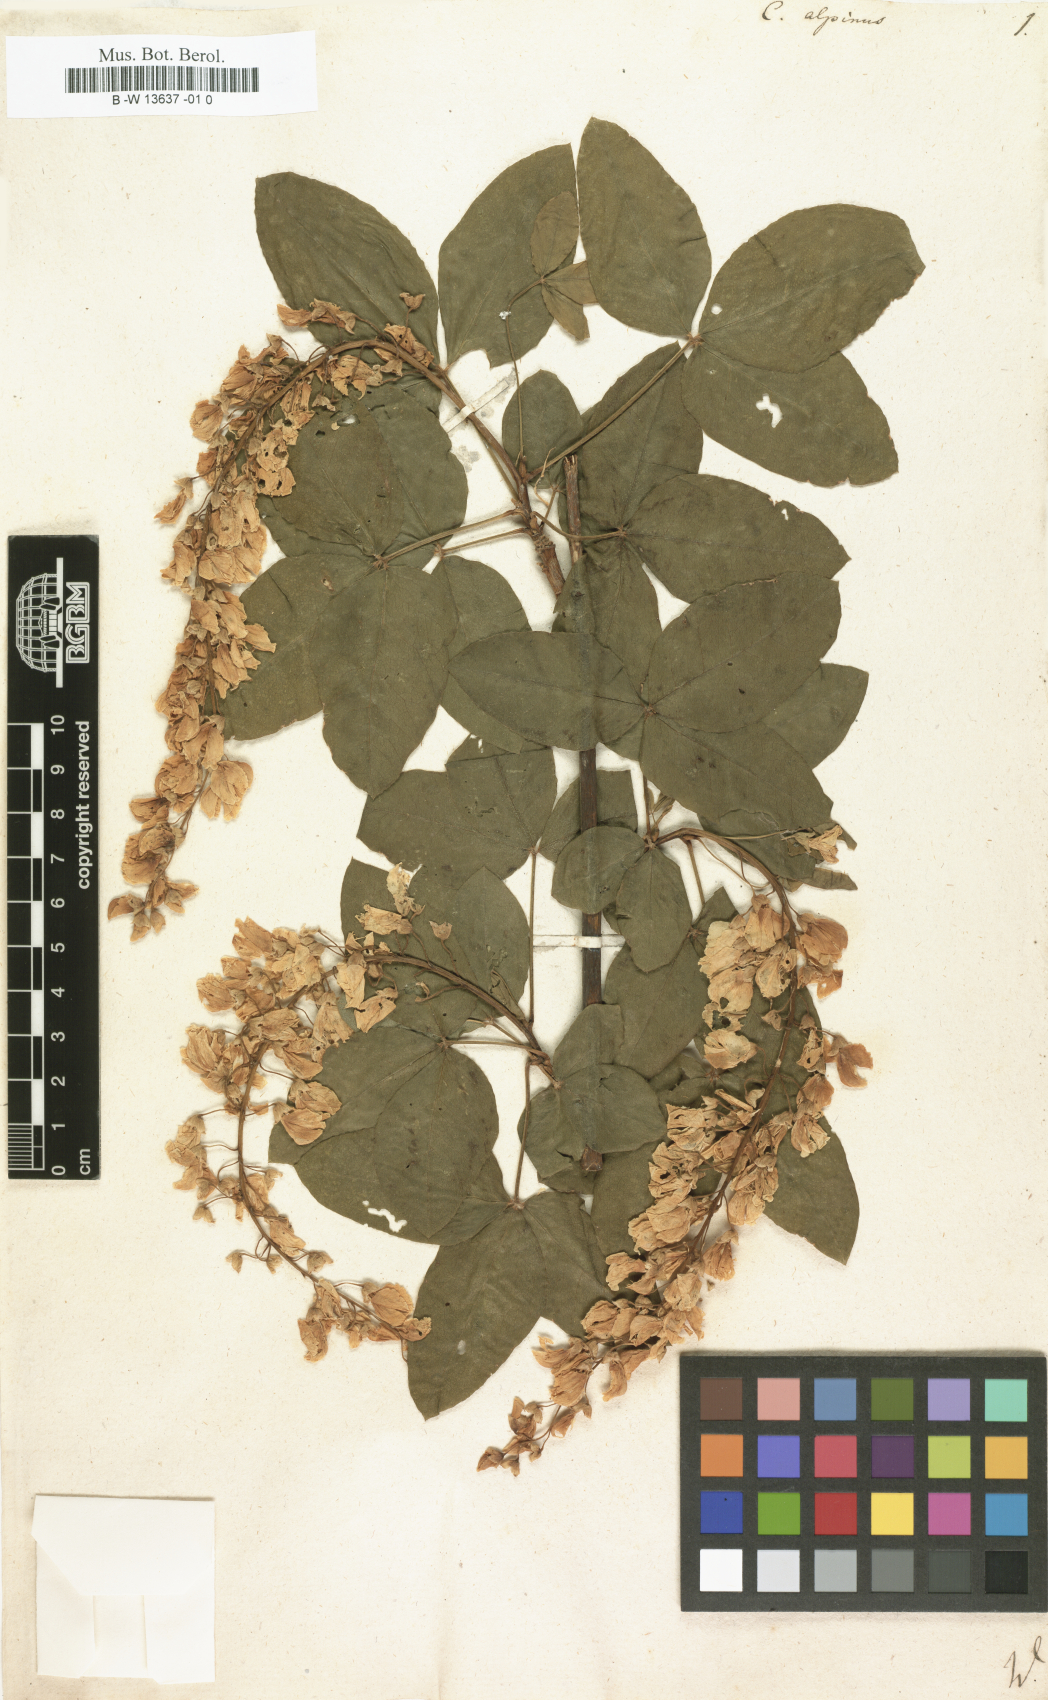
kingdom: Plantae
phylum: Tracheophyta
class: Magnoliopsida
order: Fabales
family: Fabaceae
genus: Laburnum
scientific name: Laburnum alpinum
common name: Scottish laburnum
